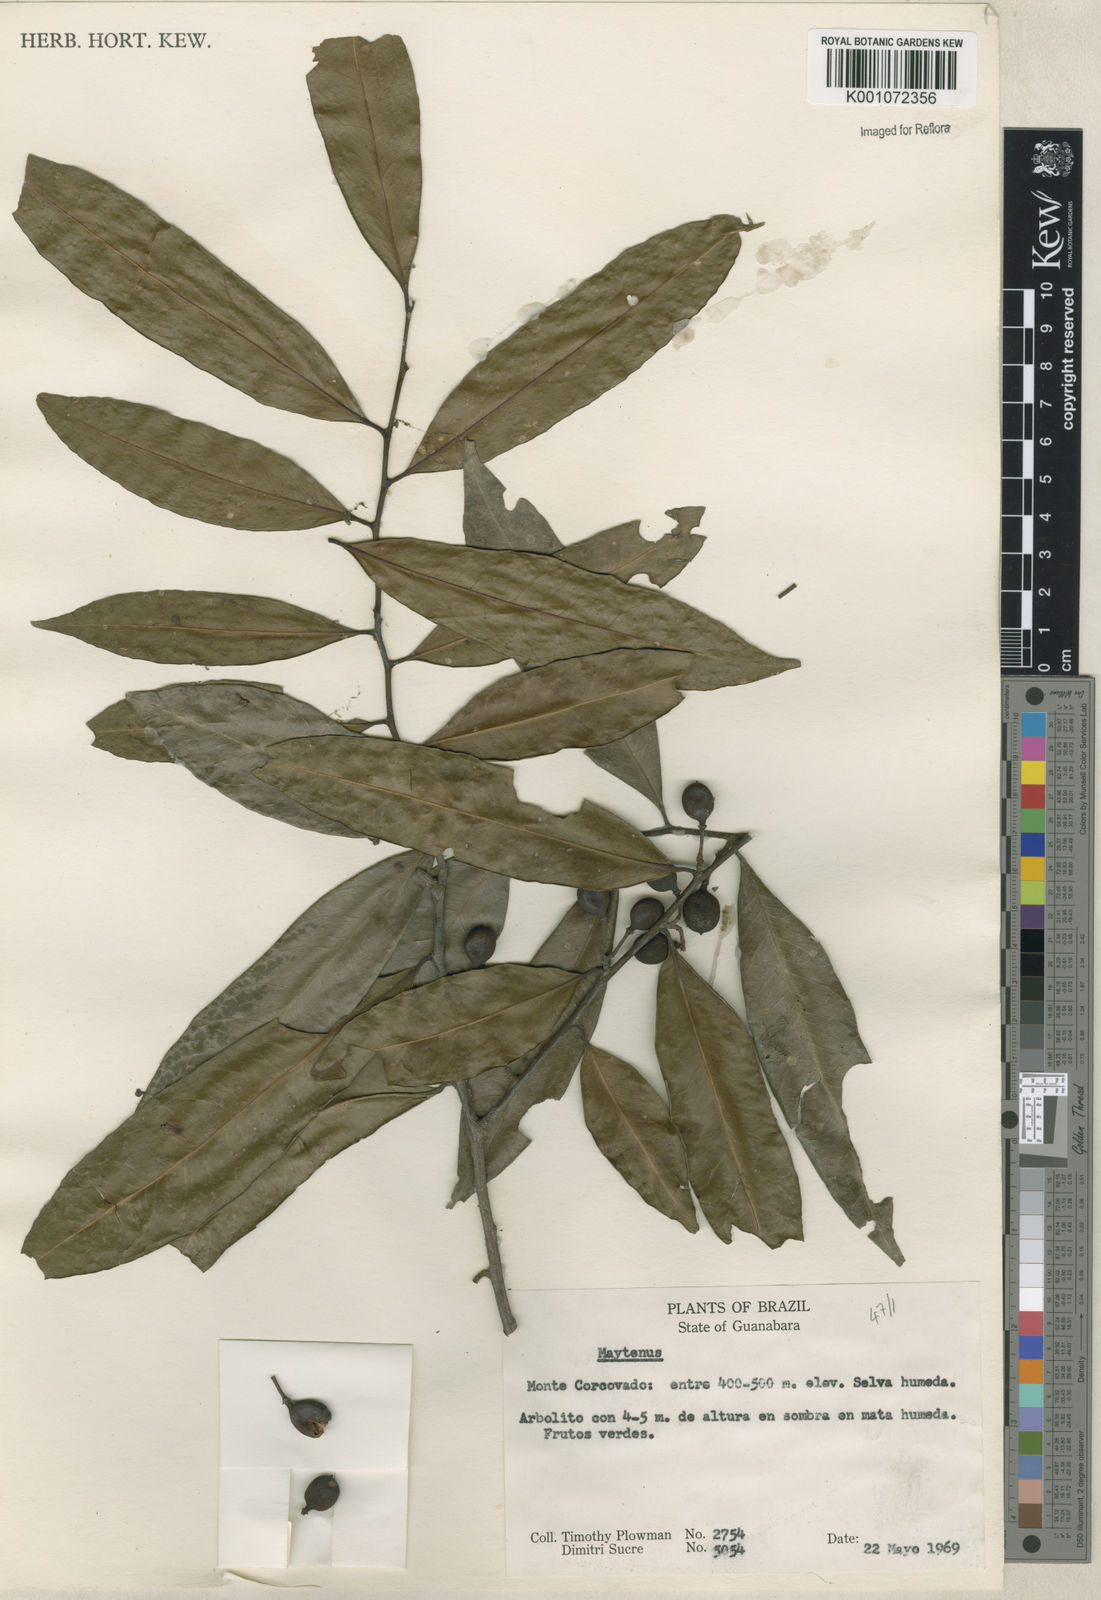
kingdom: Plantae
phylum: Tracheophyta
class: Magnoliopsida
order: Celastrales
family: Celastraceae
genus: Maytenus
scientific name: Maytenus
